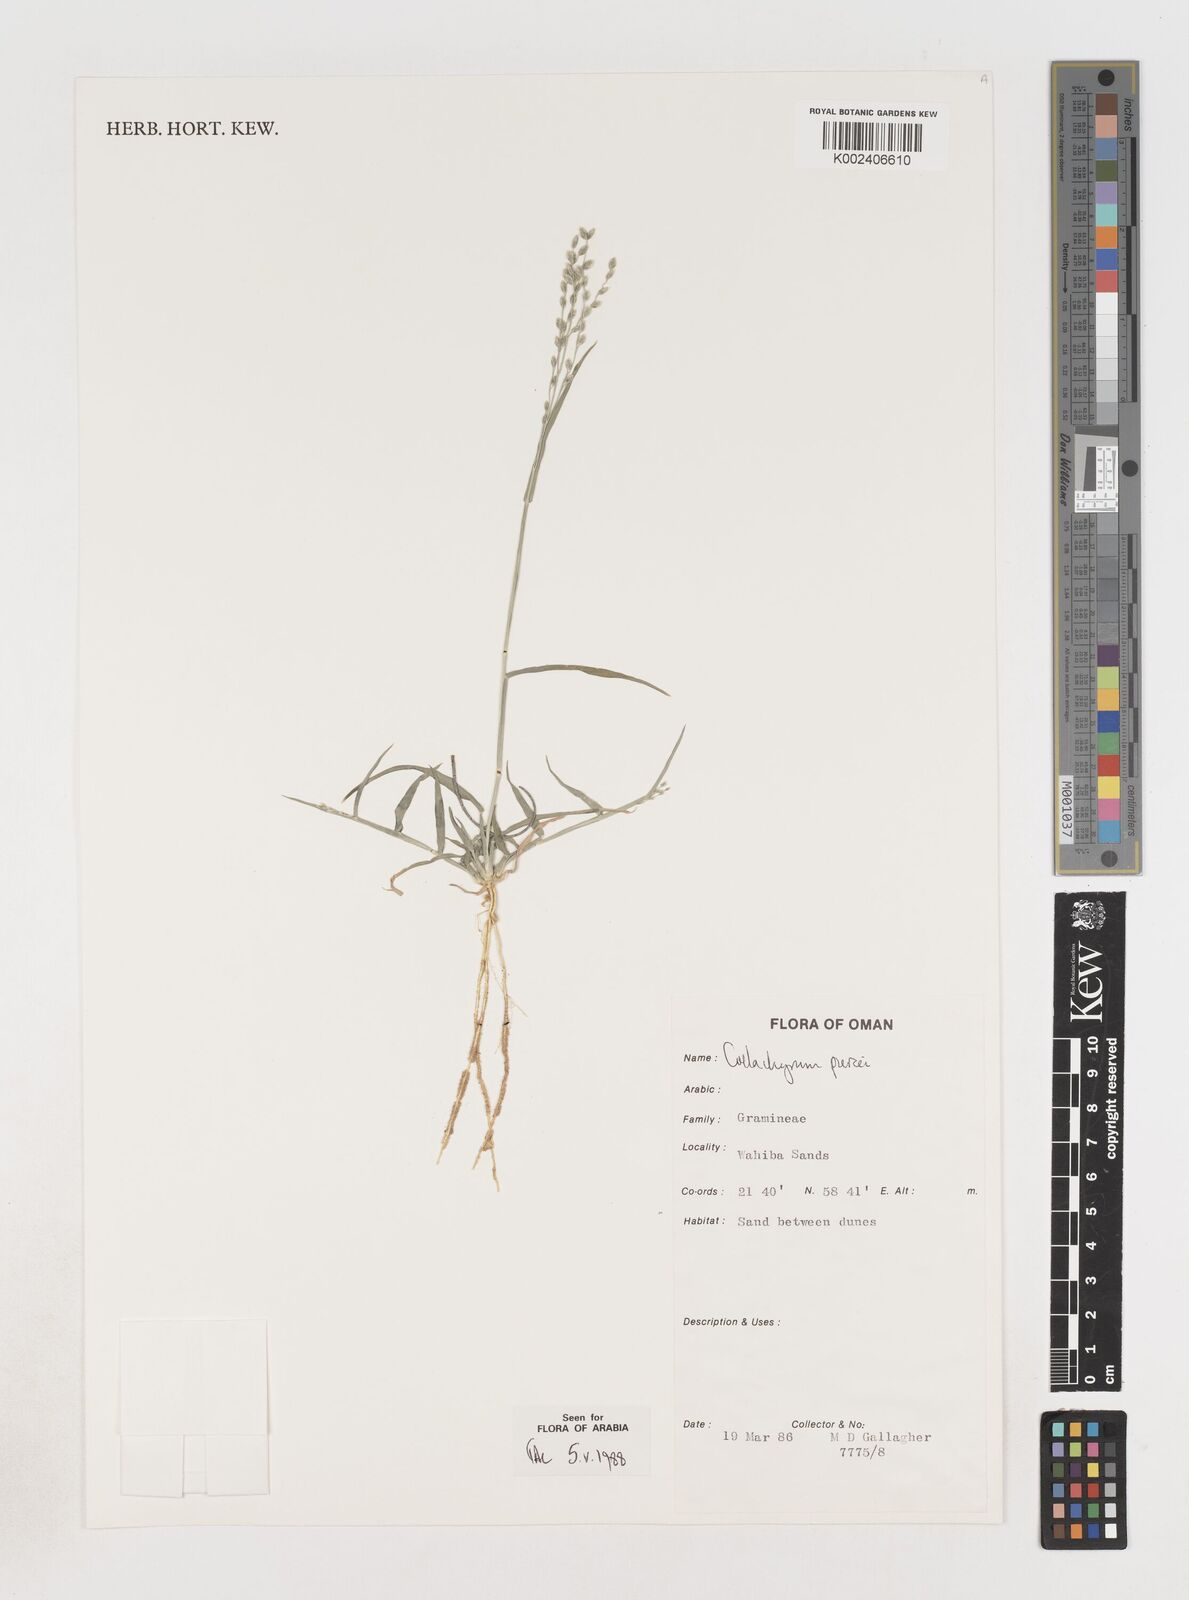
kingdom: Plantae
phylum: Tracheophyta
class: Liliopsida
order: Poales
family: Poaceae
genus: Coelachyrum
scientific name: Coelachyrum piercei
